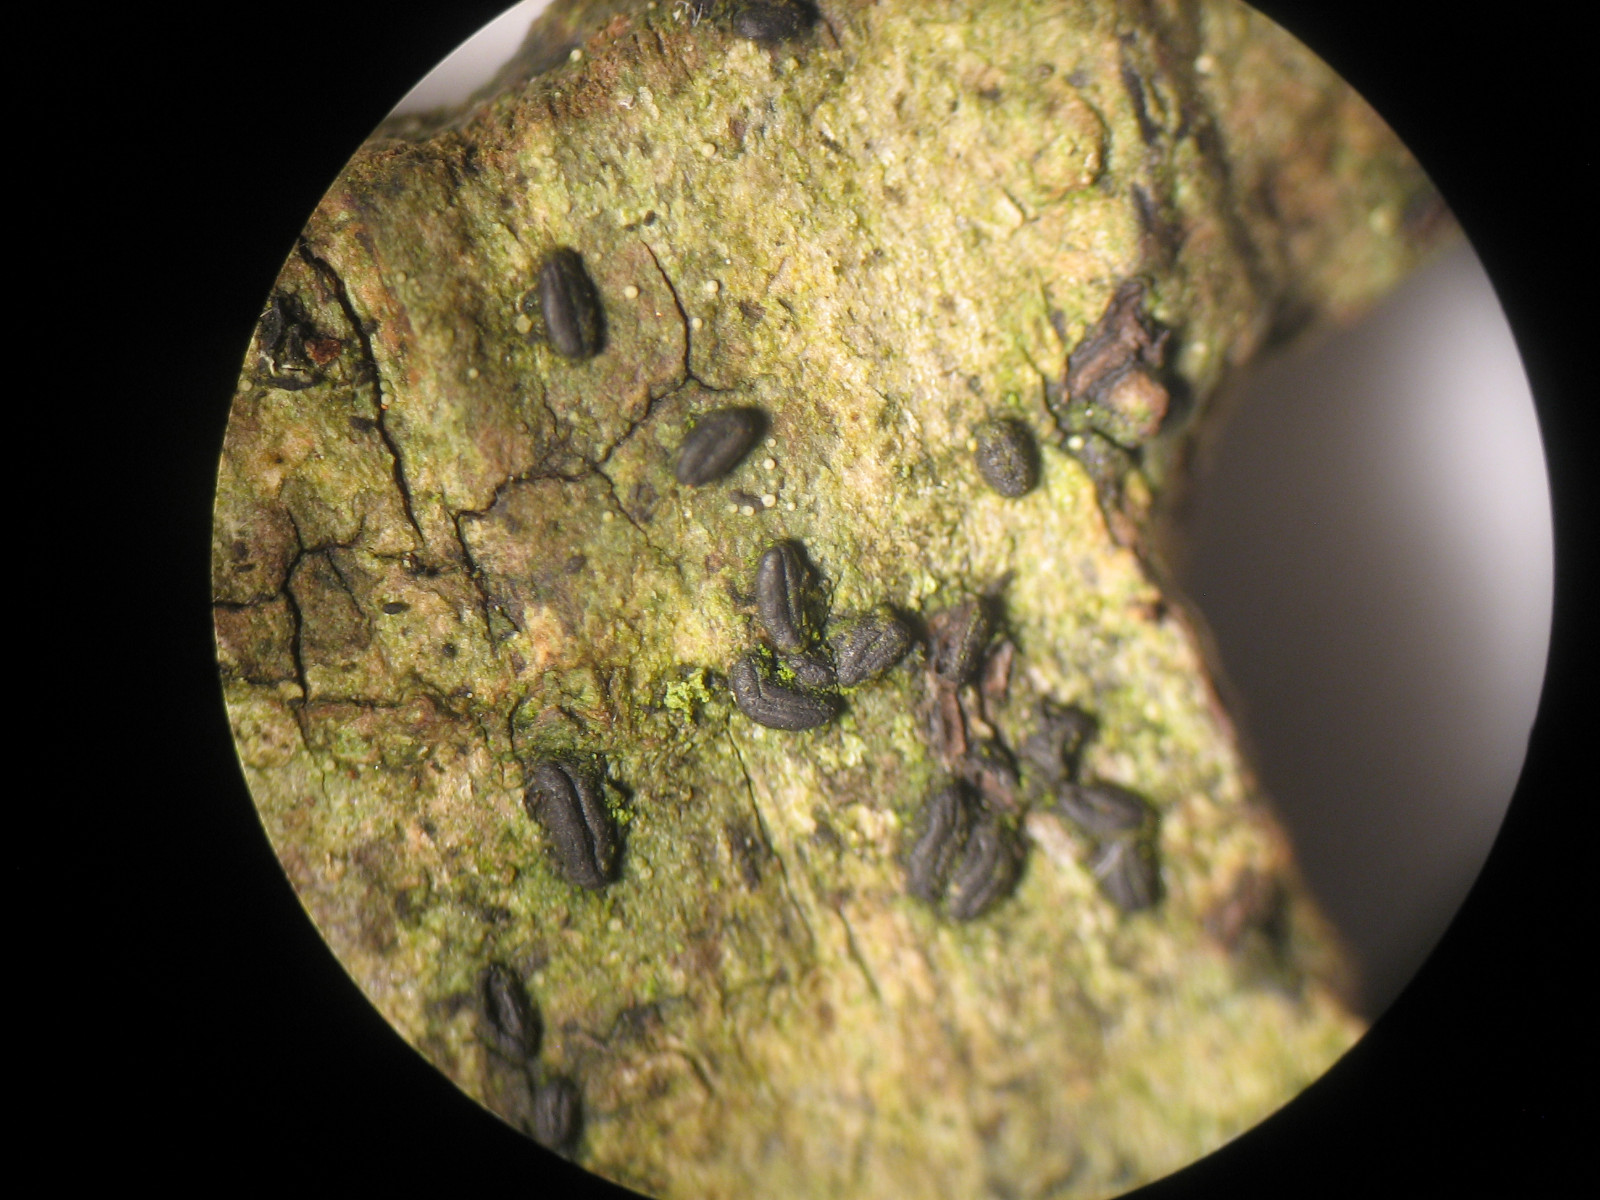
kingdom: Fungi
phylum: Ascomycota
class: Dothideomycetes
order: Hysteriales
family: Hysteriaceae
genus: Hysterium
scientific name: Hysterium pulicare
